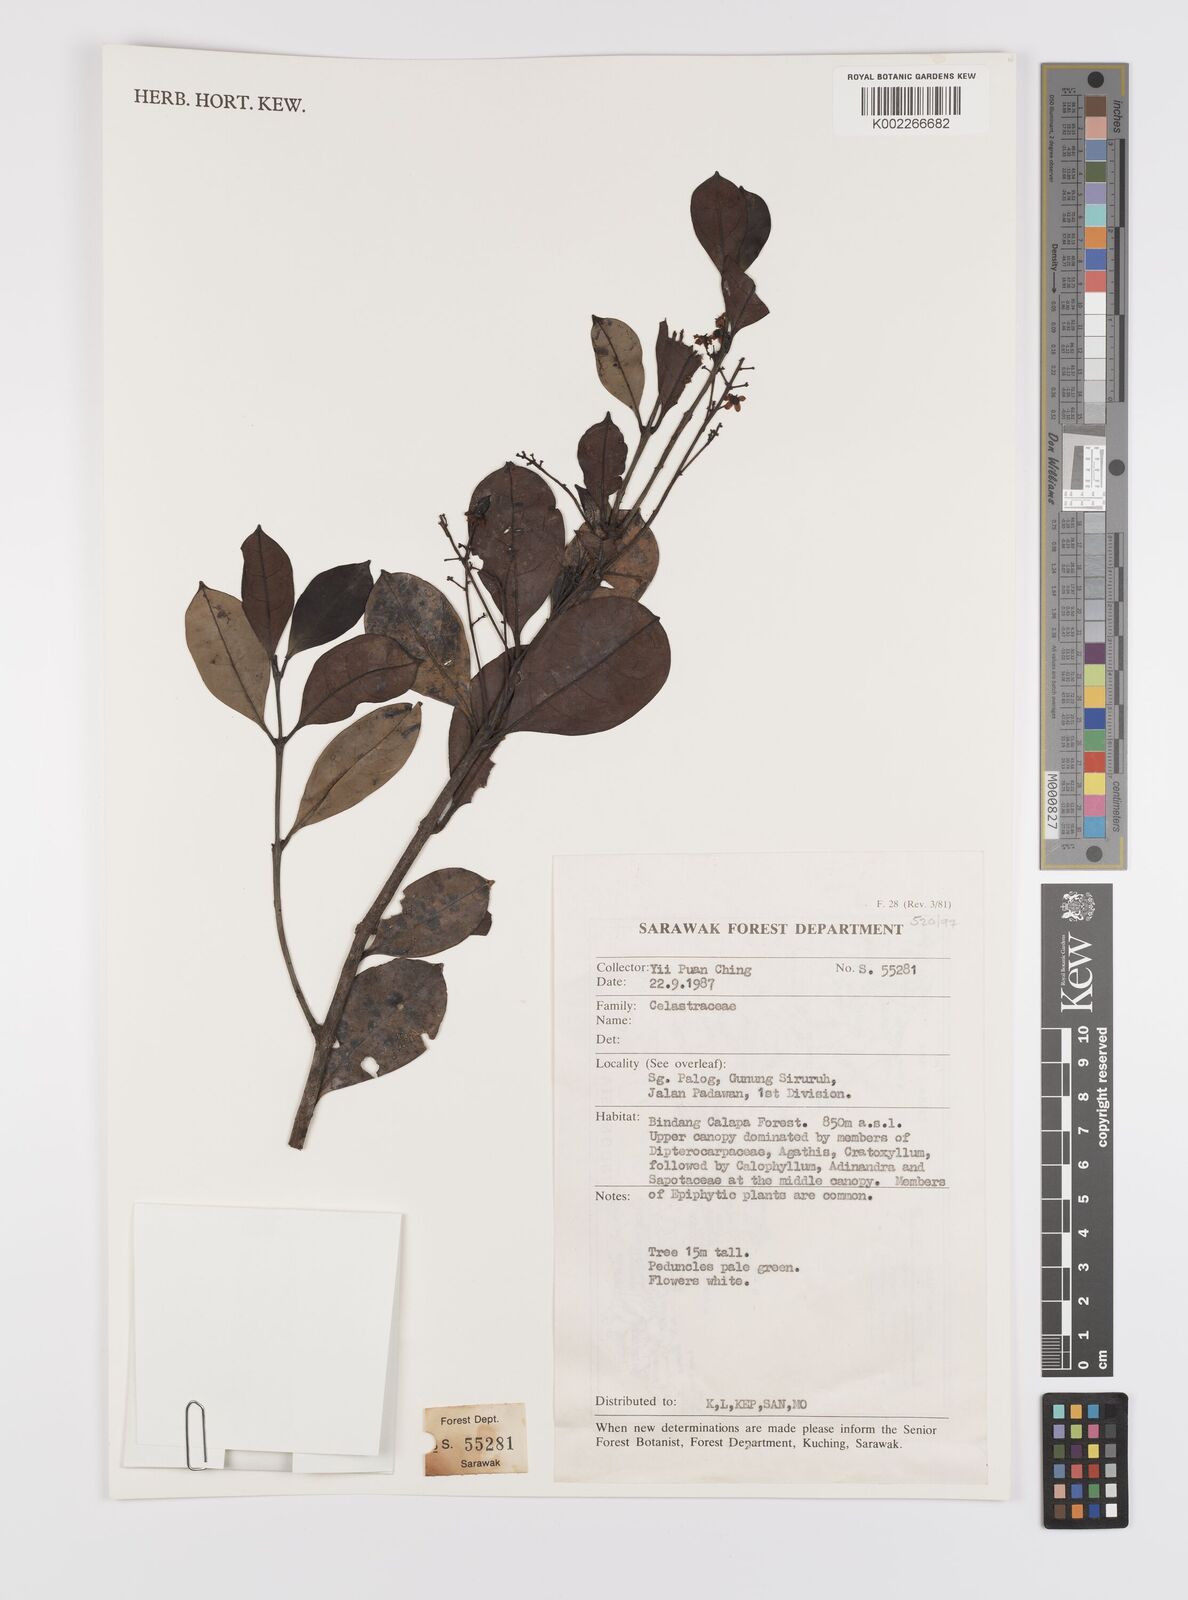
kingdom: Plantae
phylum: Tracheophyta
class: Magnoliopsida
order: Celastrales
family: Celastraceae
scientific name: Celastraceae
